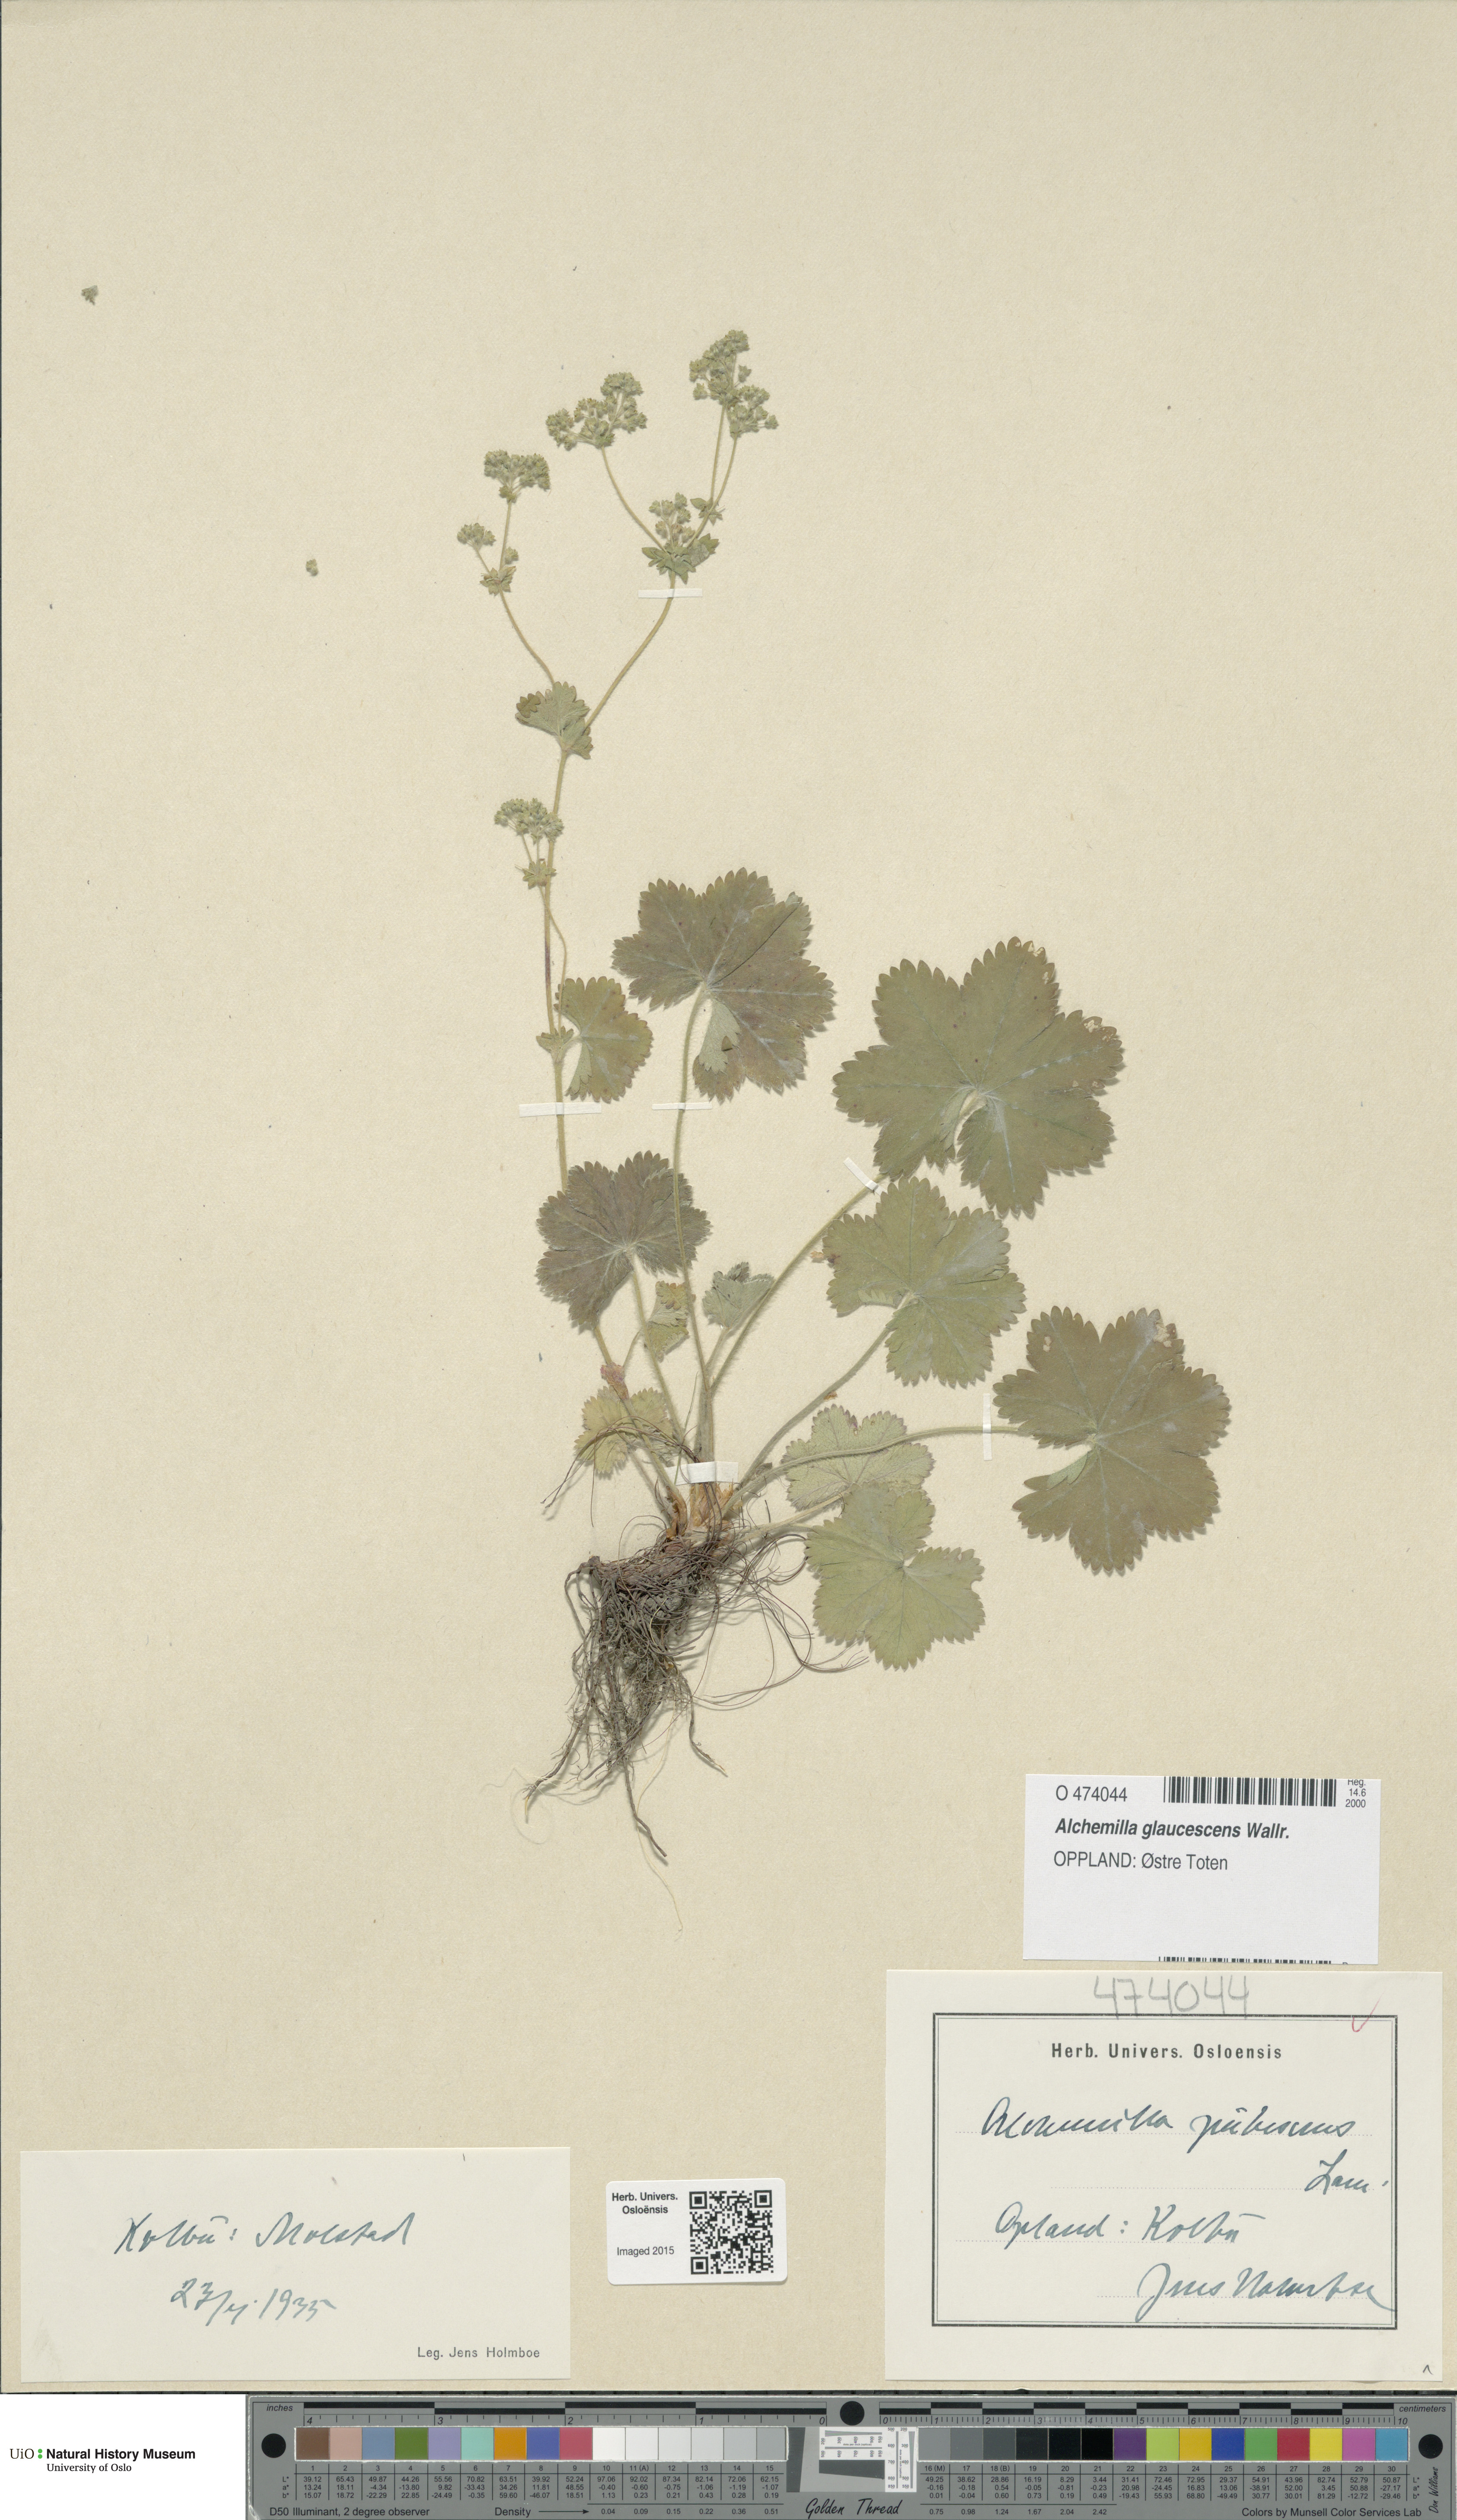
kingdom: Plantae
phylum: Tracheophyta
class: Magnoliopsida
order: Rosales
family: Rosaceae
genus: Alchemilla
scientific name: Alchemilla glaucescens
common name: Silky lady's mantle
